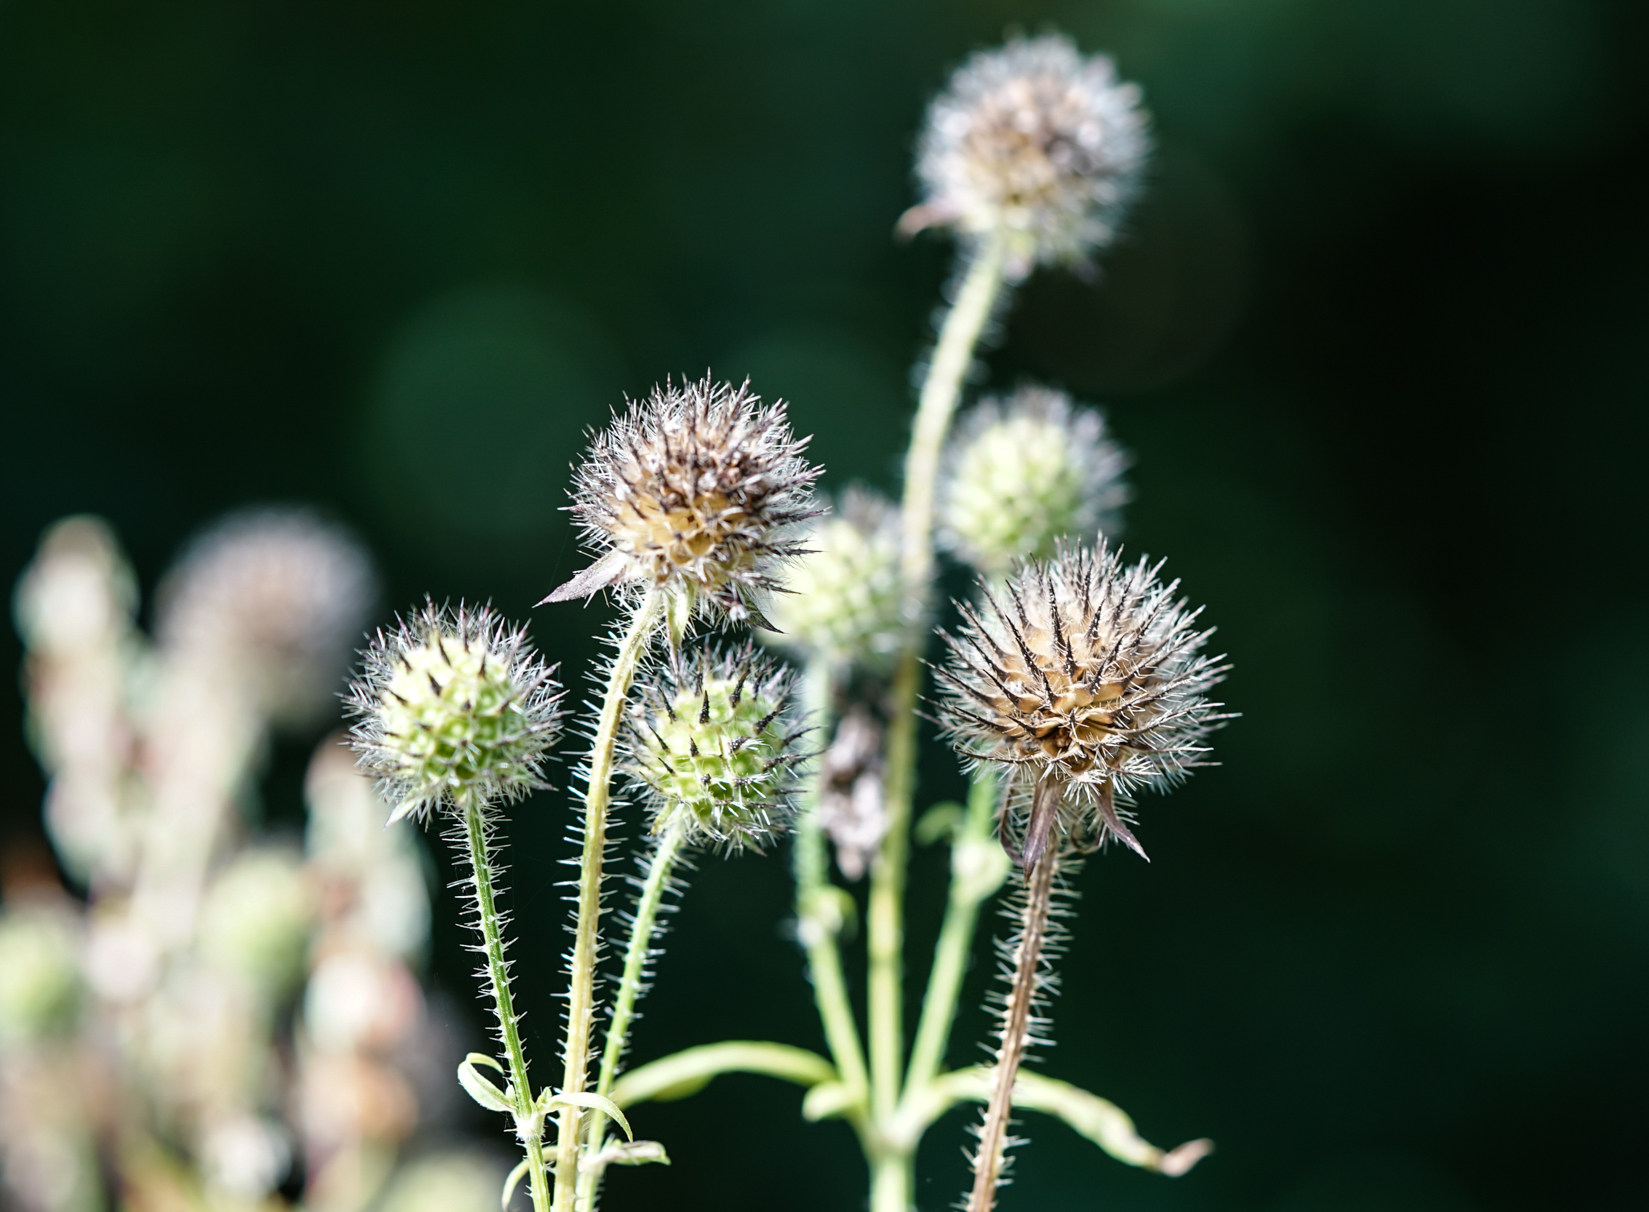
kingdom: Plantae
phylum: Tracheophyta
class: Magnoliopsida
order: Dipsacales
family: Caprifoliaceae
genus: Dipsacus
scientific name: Dipsacus pilosus
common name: Small teasel
